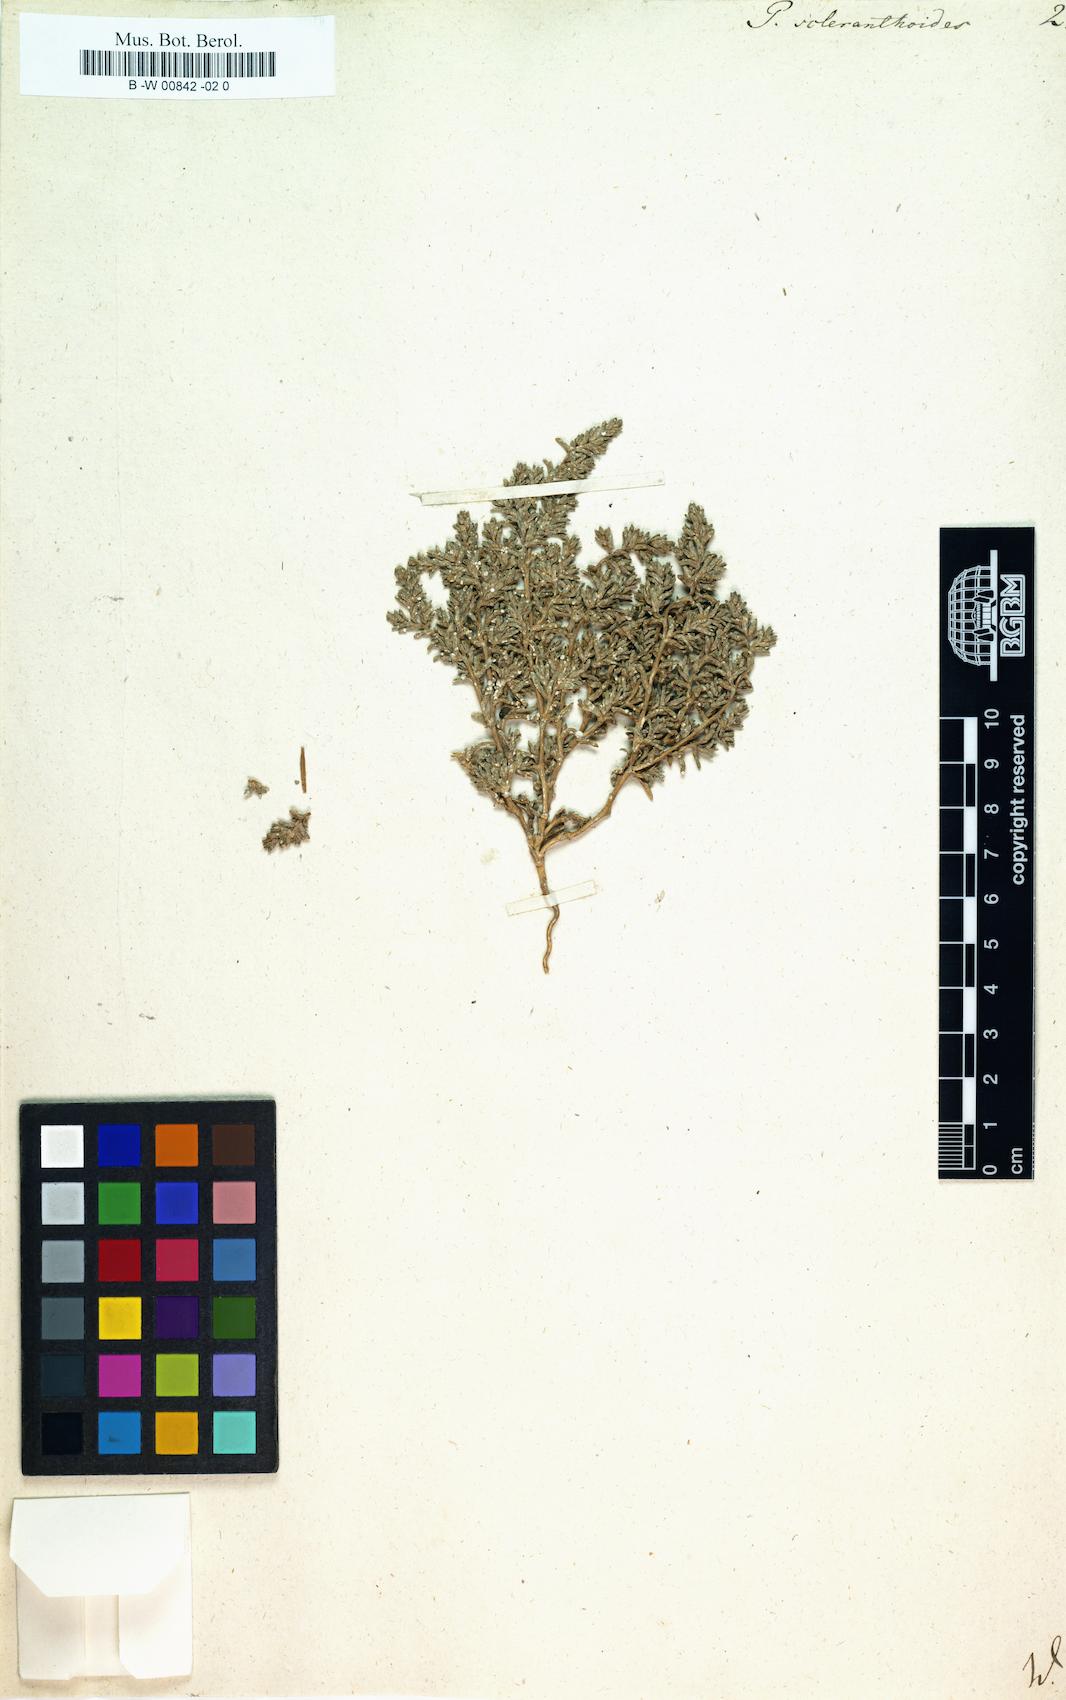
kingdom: Plantae
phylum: Tracheophyta
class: Magnoliopsida
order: Caryophyllales
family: Caryophyllaceae
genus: Cardionema
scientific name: Cardionema ramosissima
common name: Sandcarpet
